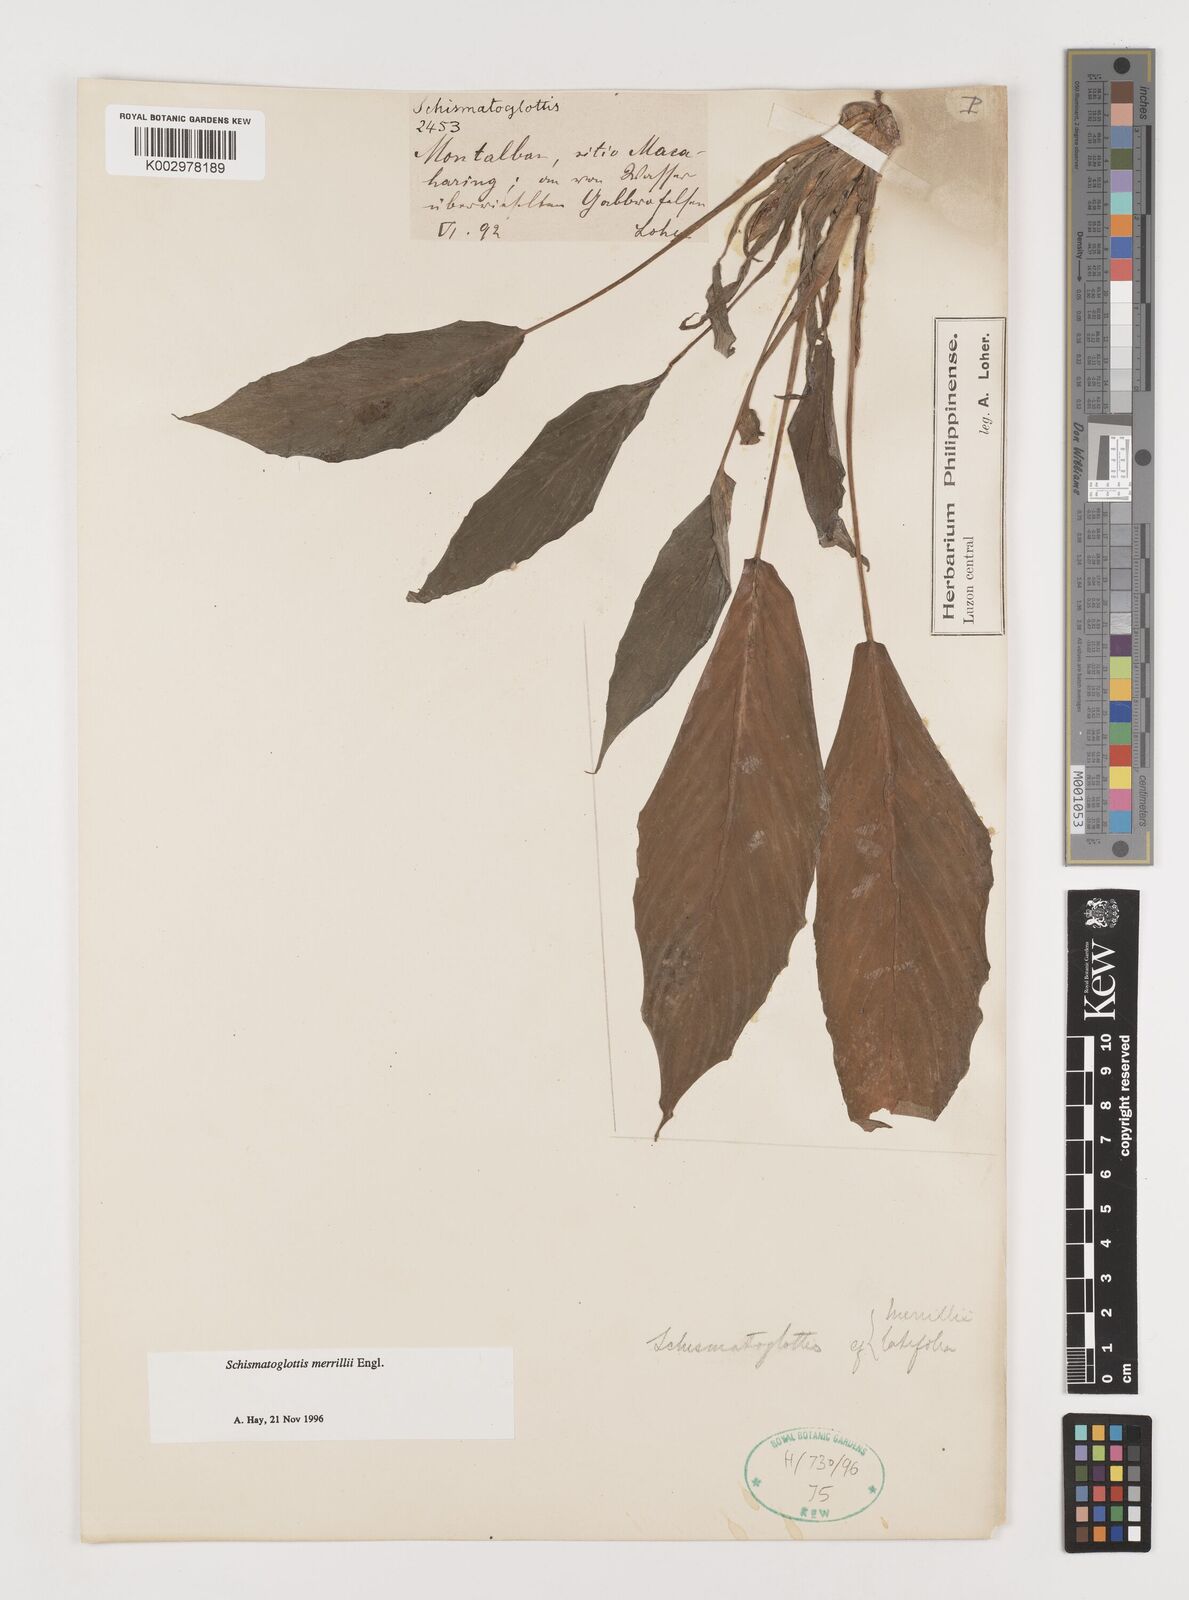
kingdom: Plantae
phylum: Tracheophyta
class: Liliopsida
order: Alismatales
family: Araceae
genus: Schismatoglottis
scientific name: Schismatoglottis merrillii
